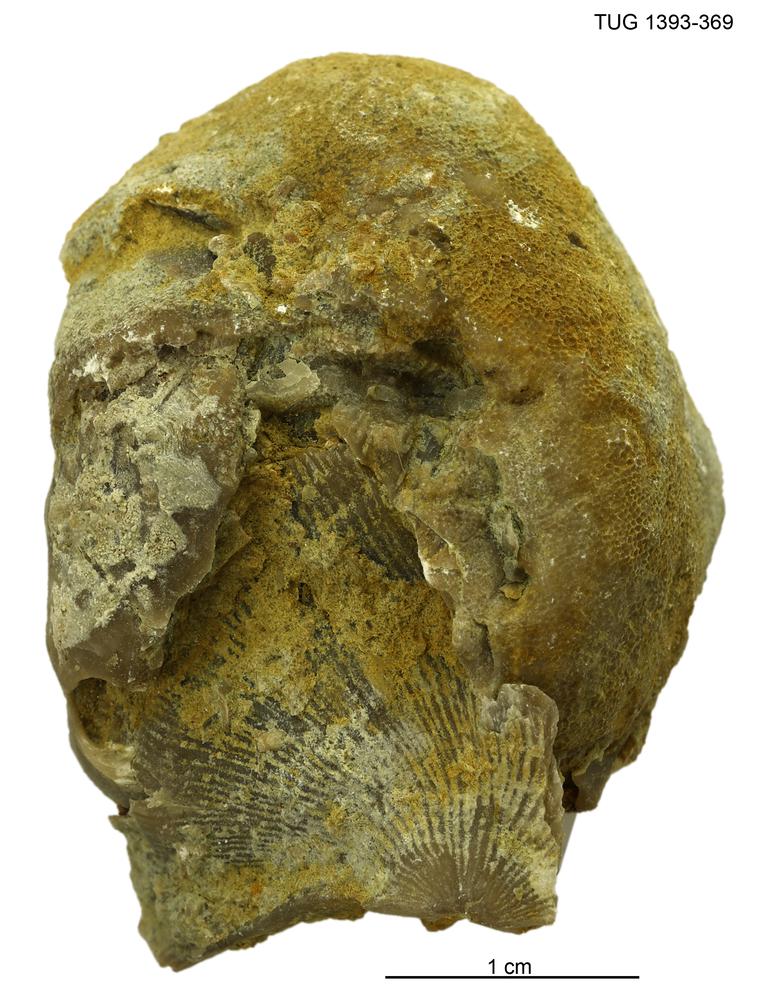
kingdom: Animalia
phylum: Bryozoa
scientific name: Bryozoa
